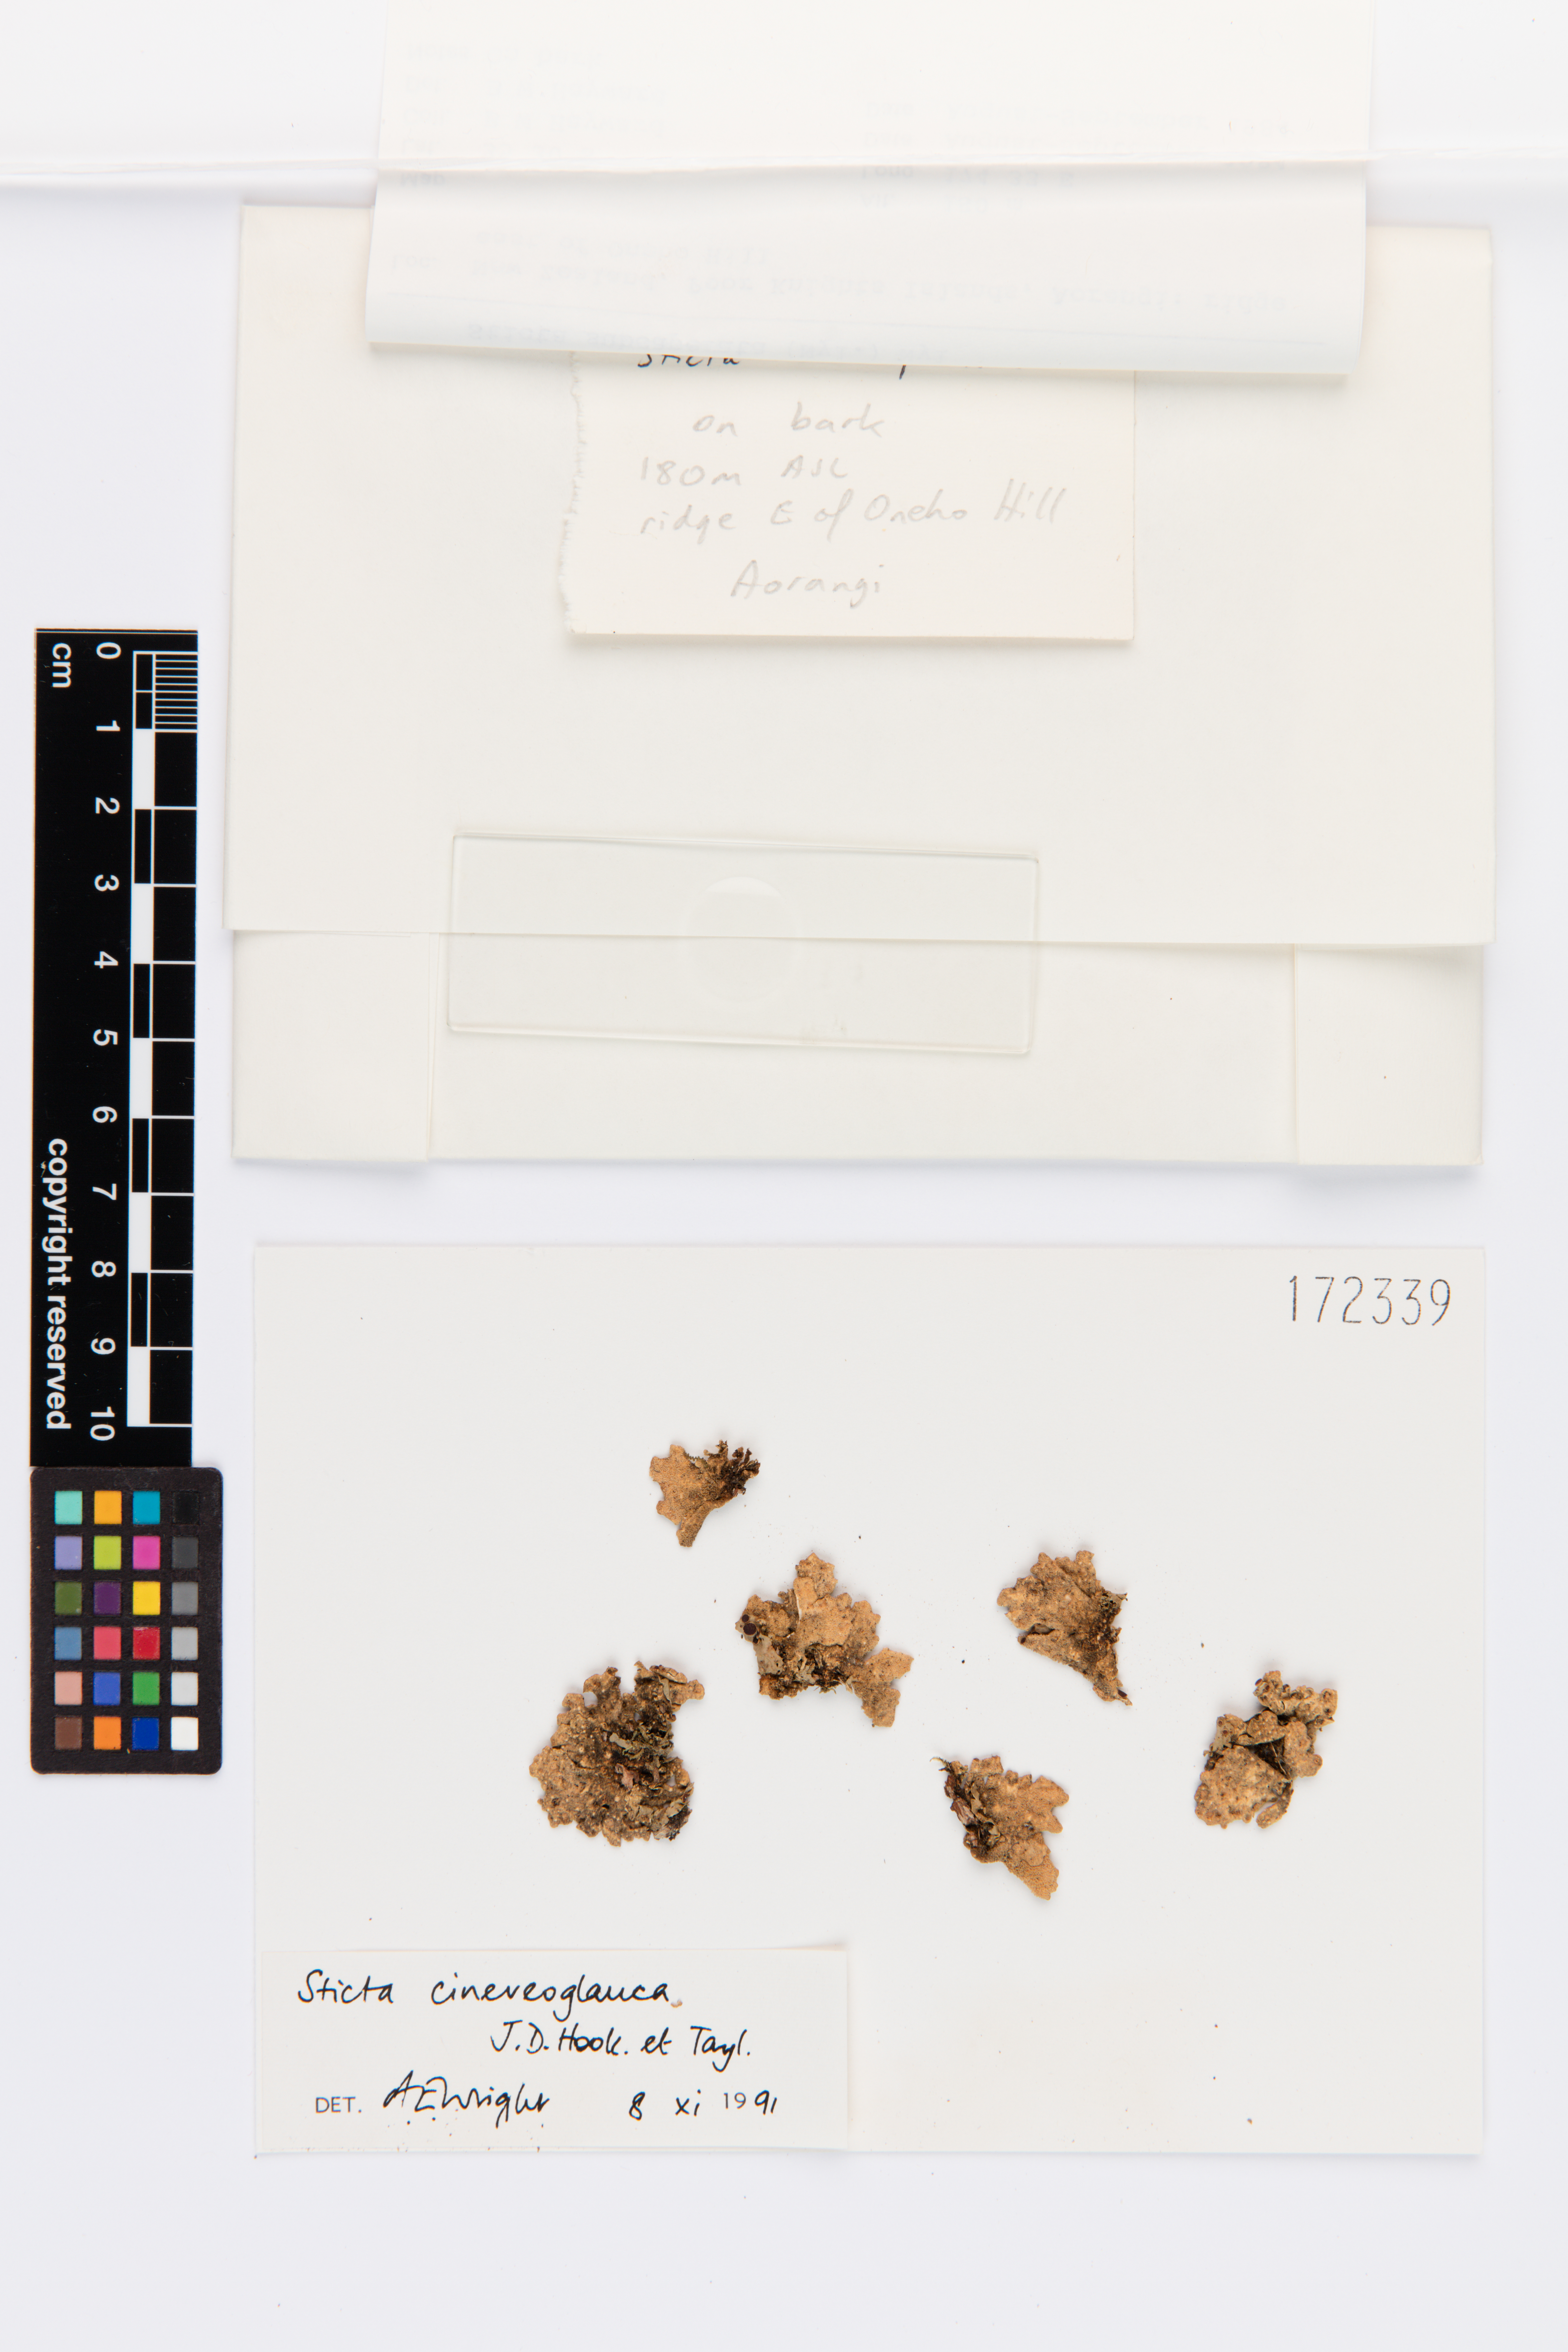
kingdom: Fungi
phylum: Ascomycota
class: Lecanoromycetes
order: Peltigerales
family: Lobariaceae
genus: Sticta
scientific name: Sticta cinereoglauca
